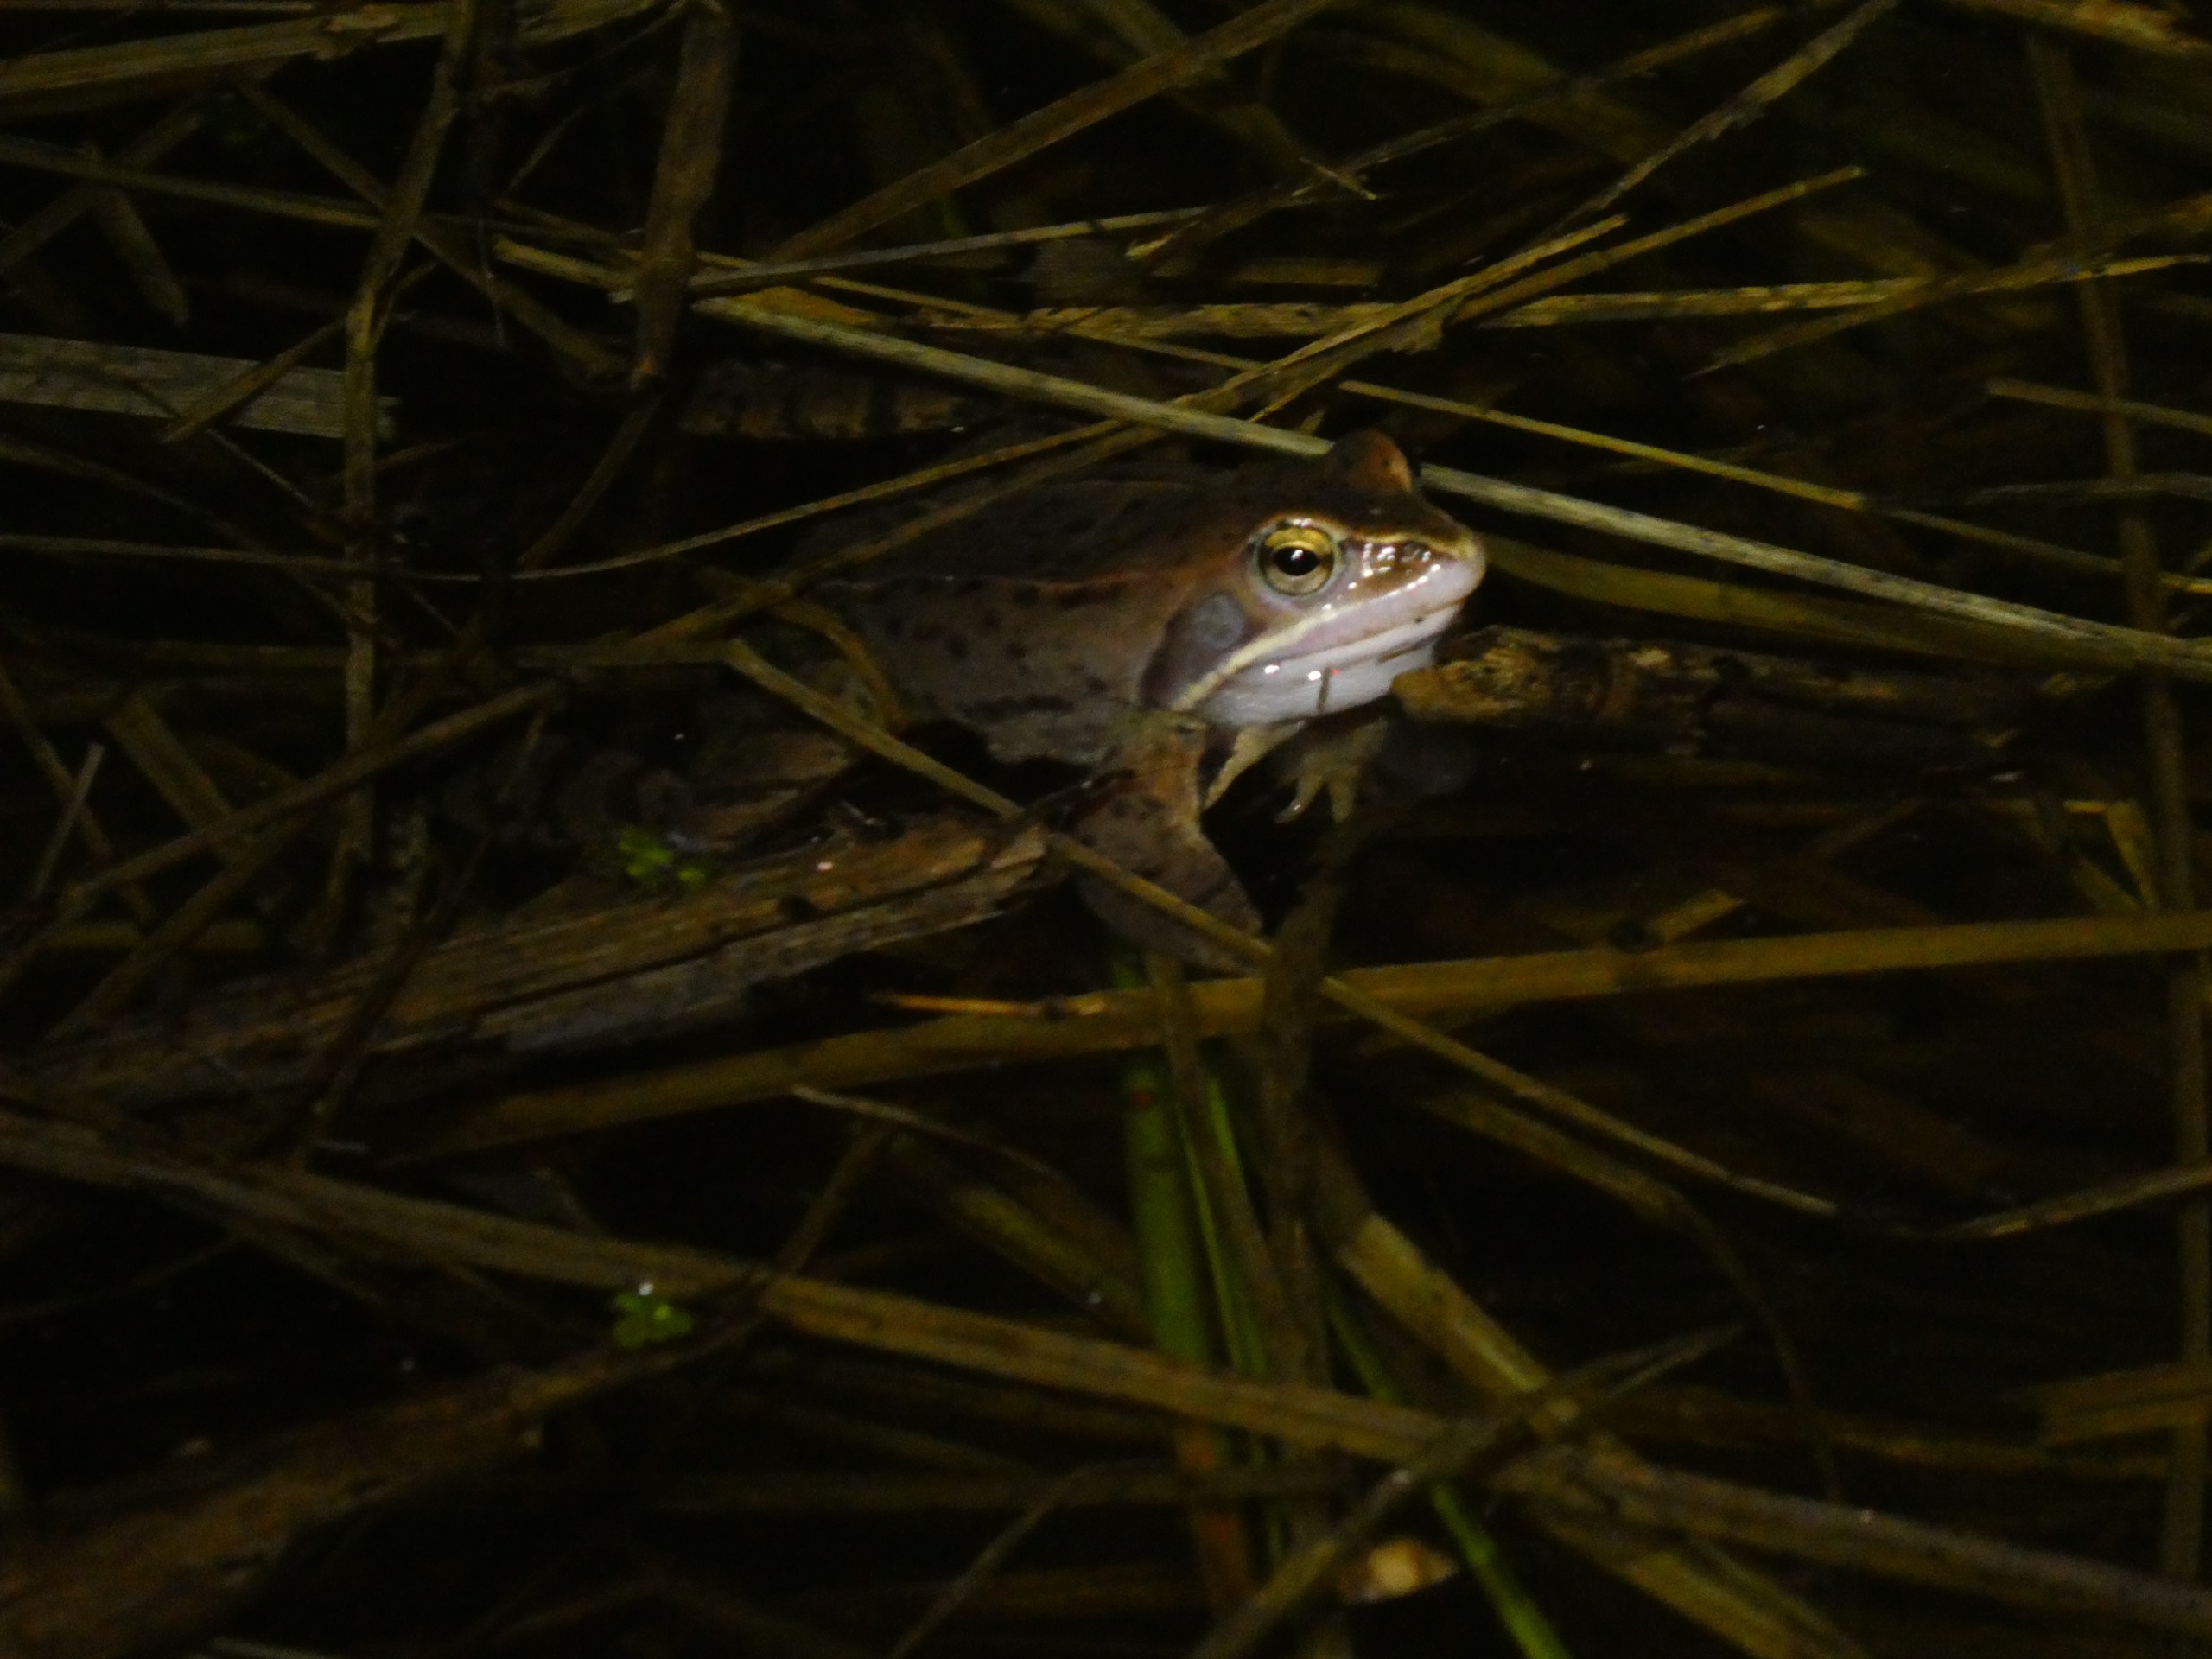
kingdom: Animalia
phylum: Chordata
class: Amphibia
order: Anura
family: Ranidae
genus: Rana
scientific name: Rana arvalis
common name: Spidssnudet frø
